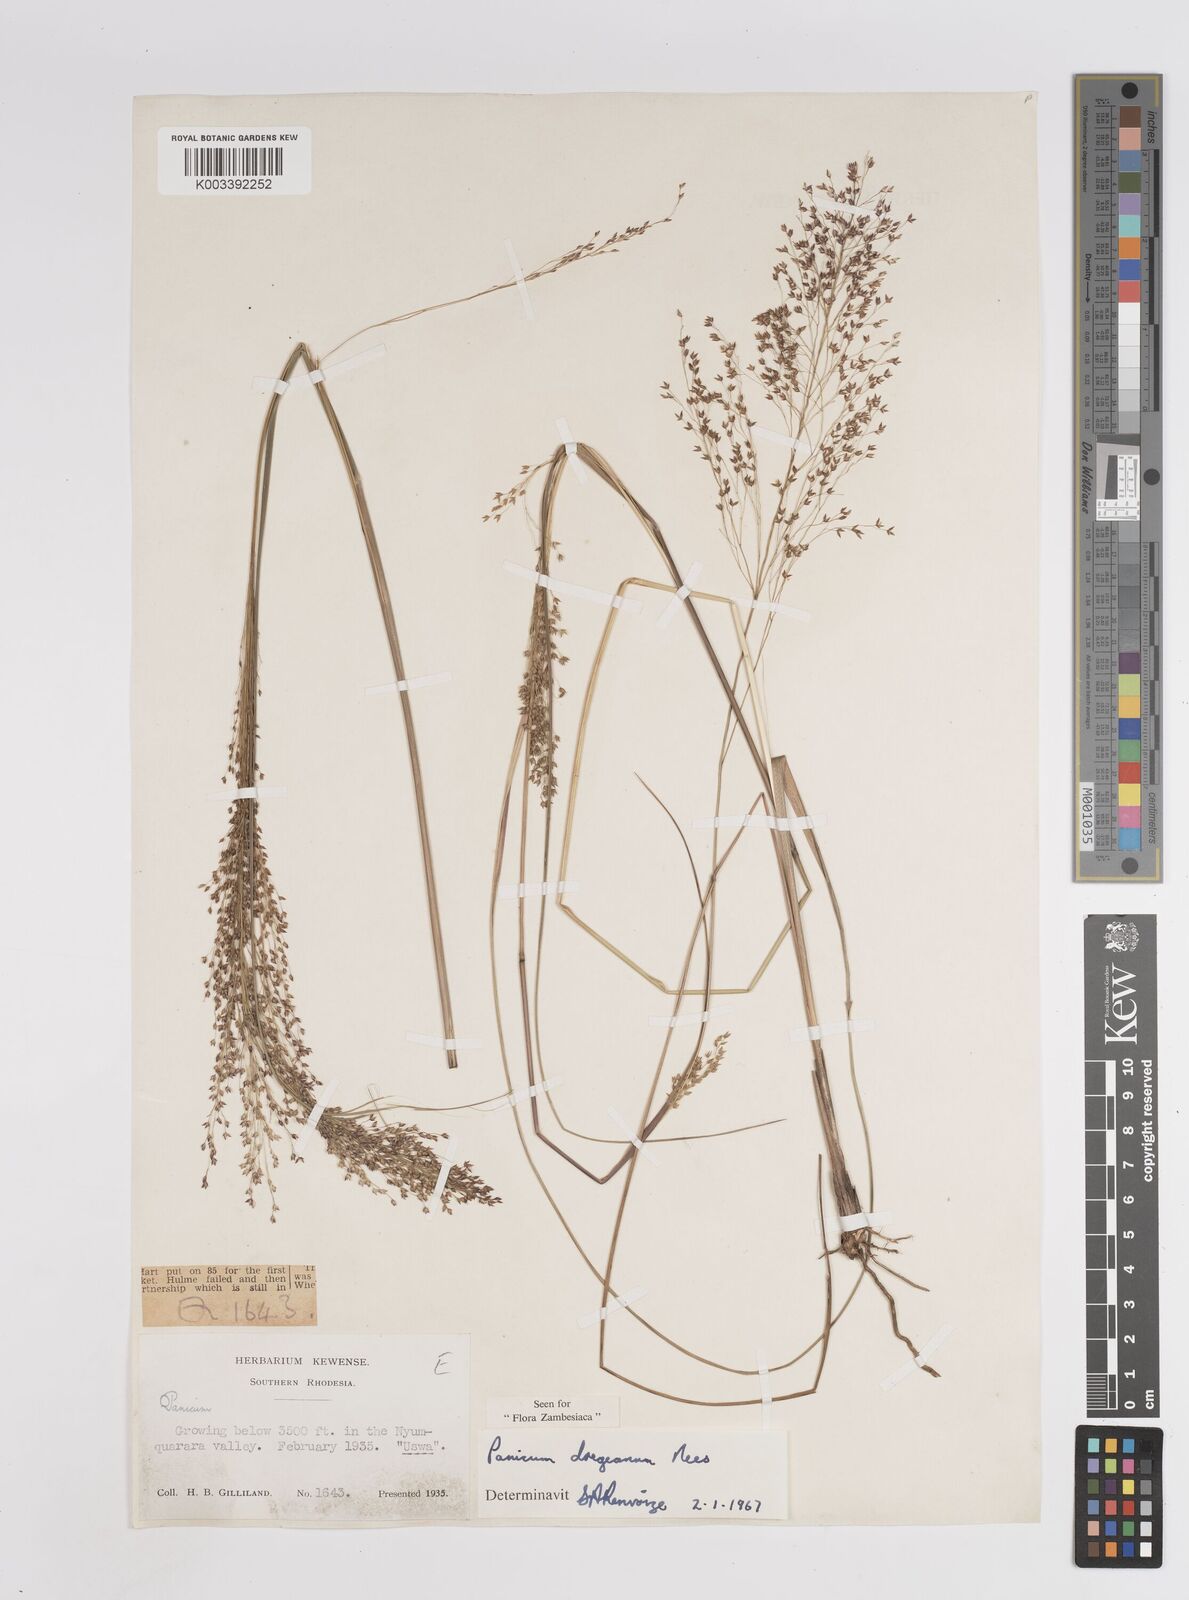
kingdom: Plantae
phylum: Tracheophyta
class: Liliopsida
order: Poales
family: Poaceae
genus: Panicum
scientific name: Panicum dregeanum
